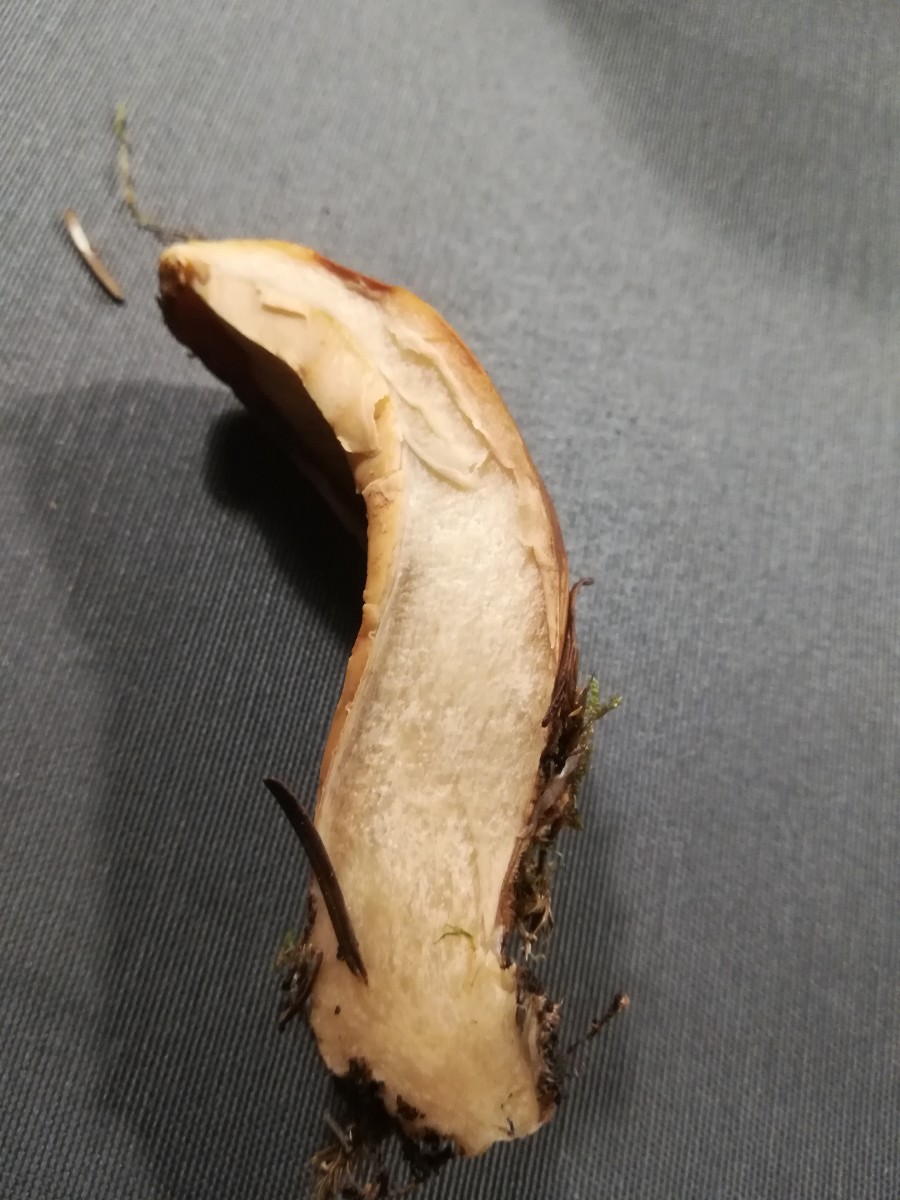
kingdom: Fungi
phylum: Basidiomycota
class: Agaricomycetes
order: Boletales
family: Tapinellaceae
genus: Tapinella
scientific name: Tapinella atrotomentosa
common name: sortfiltet viftesvamp
